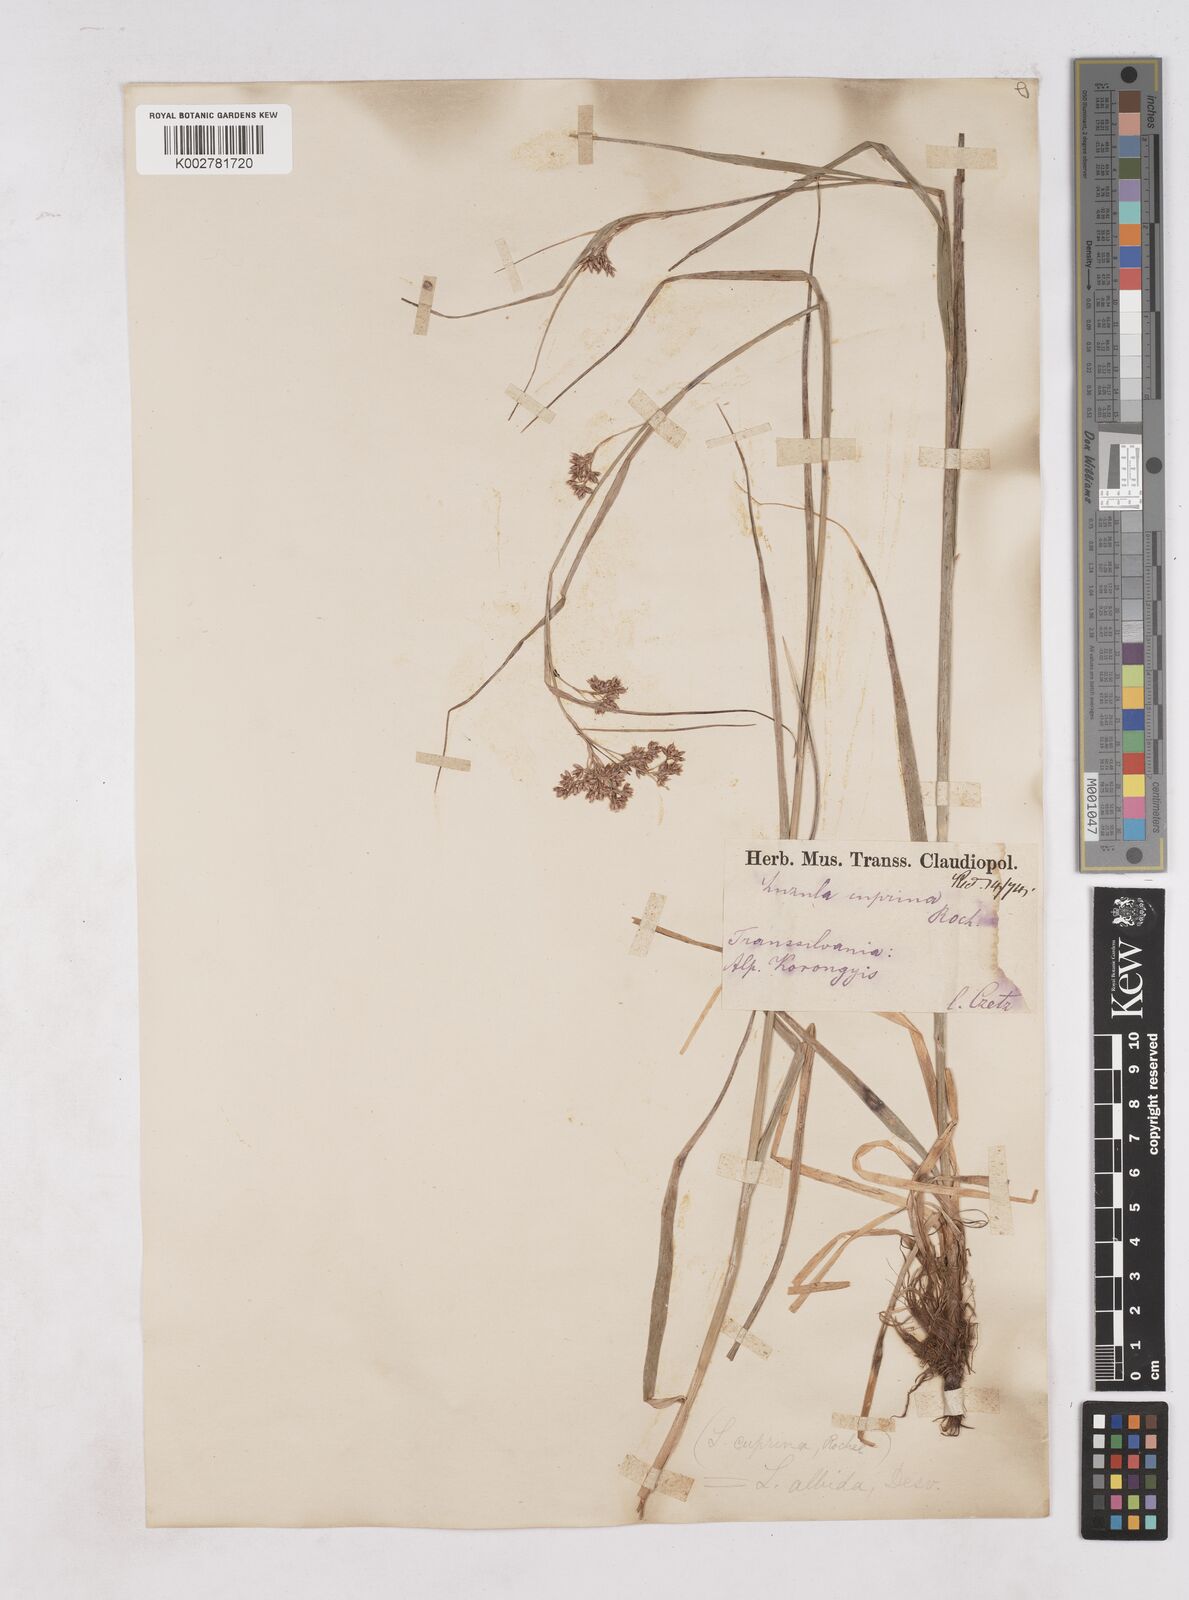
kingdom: Plantae
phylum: Tracheophyta
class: Liliopsida
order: Poales
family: Juncaceae
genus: Luzula
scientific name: Luzula luzuloides
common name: White wood-rush
